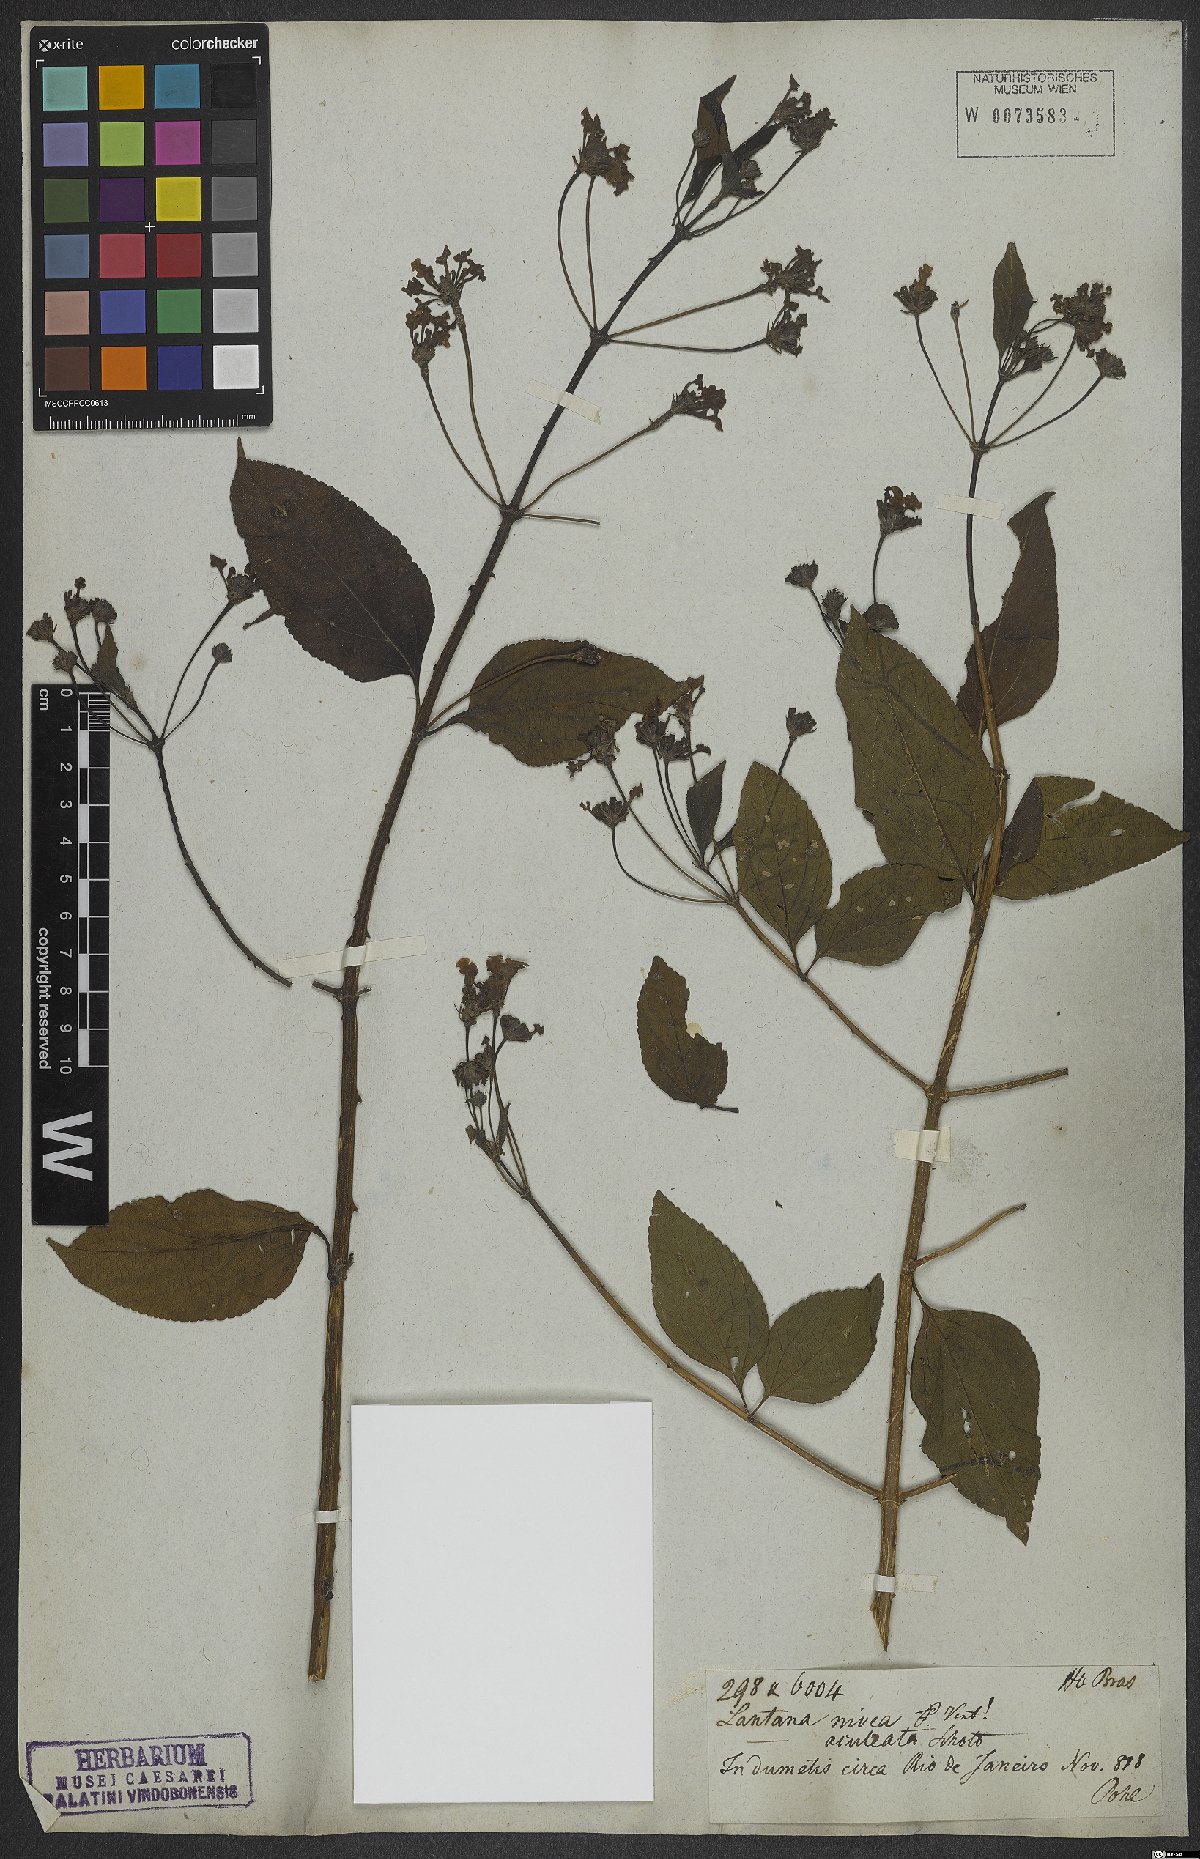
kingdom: Plantae
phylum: Tracheophyta
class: Magnoliopsida
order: Lamiales
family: Verbenaceae
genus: Lantana
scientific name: Lantana nivea
